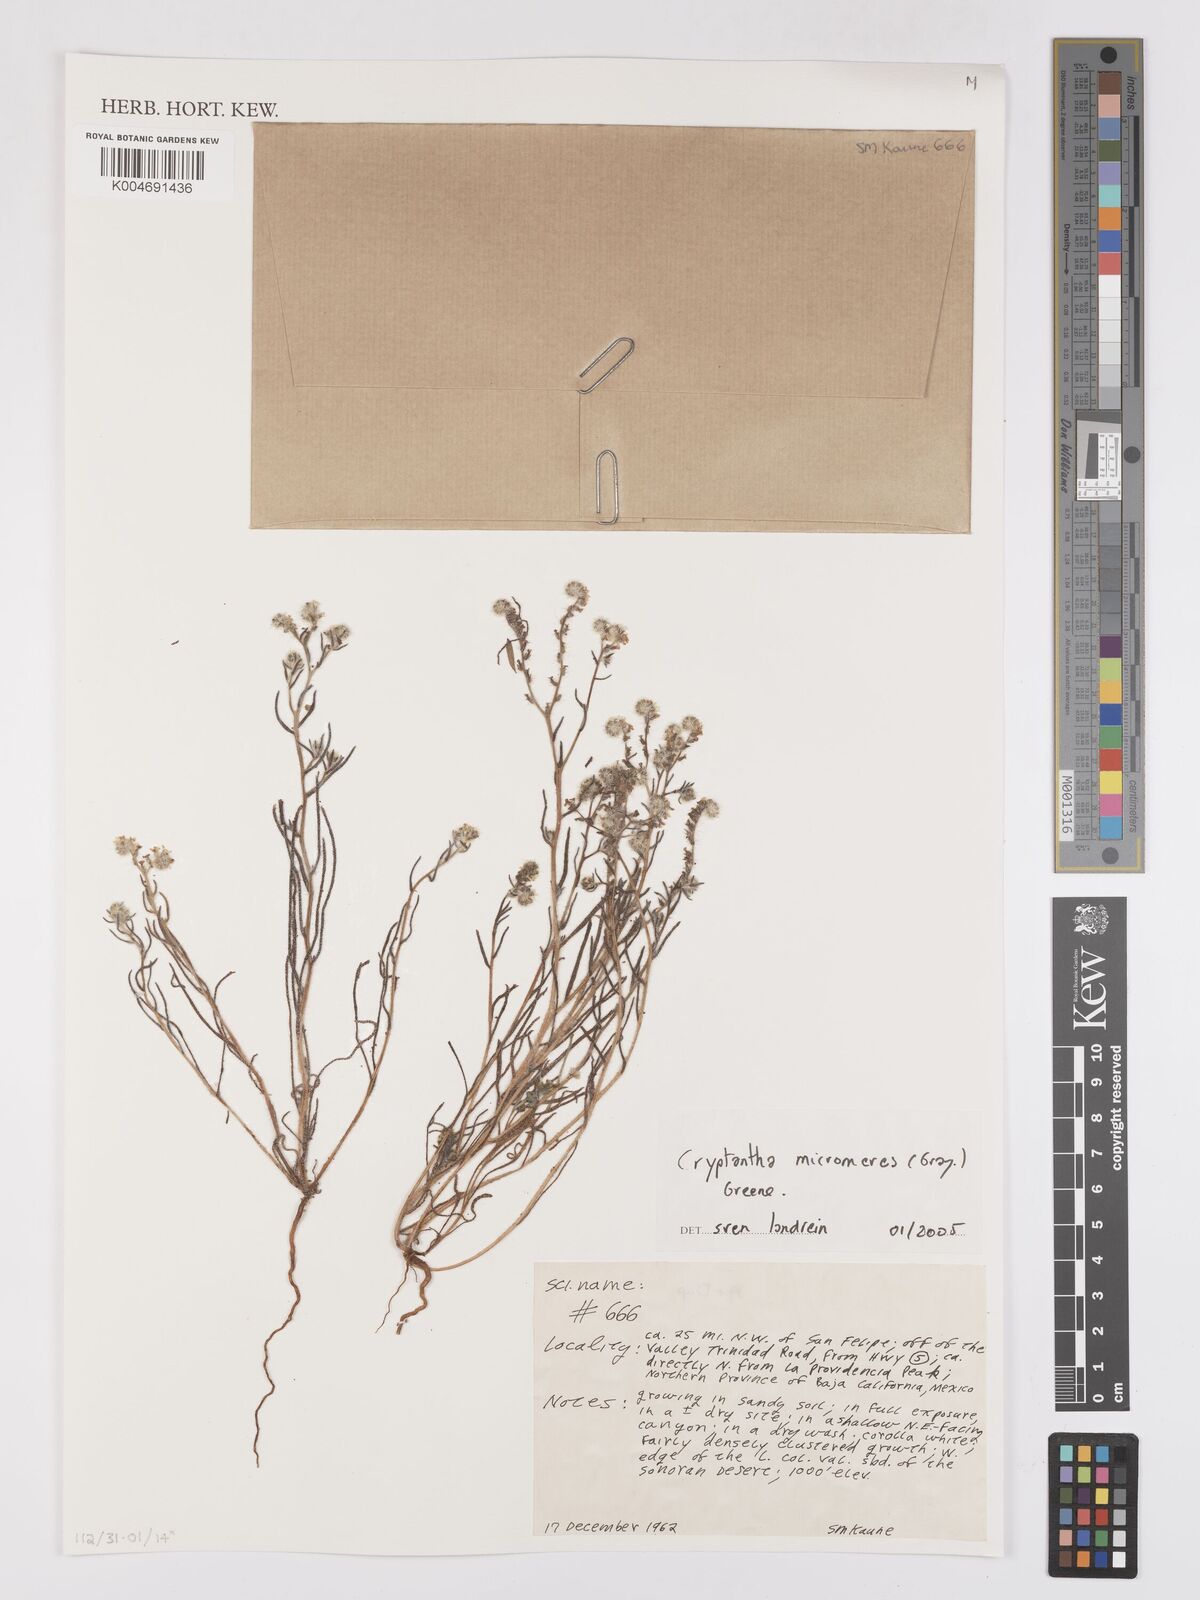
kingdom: Plantae
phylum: Tracheophyta
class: Magnoliopsida
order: Boraginales
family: Boraginaceae
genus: Johnstonella
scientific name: Johnstonella micromeres
